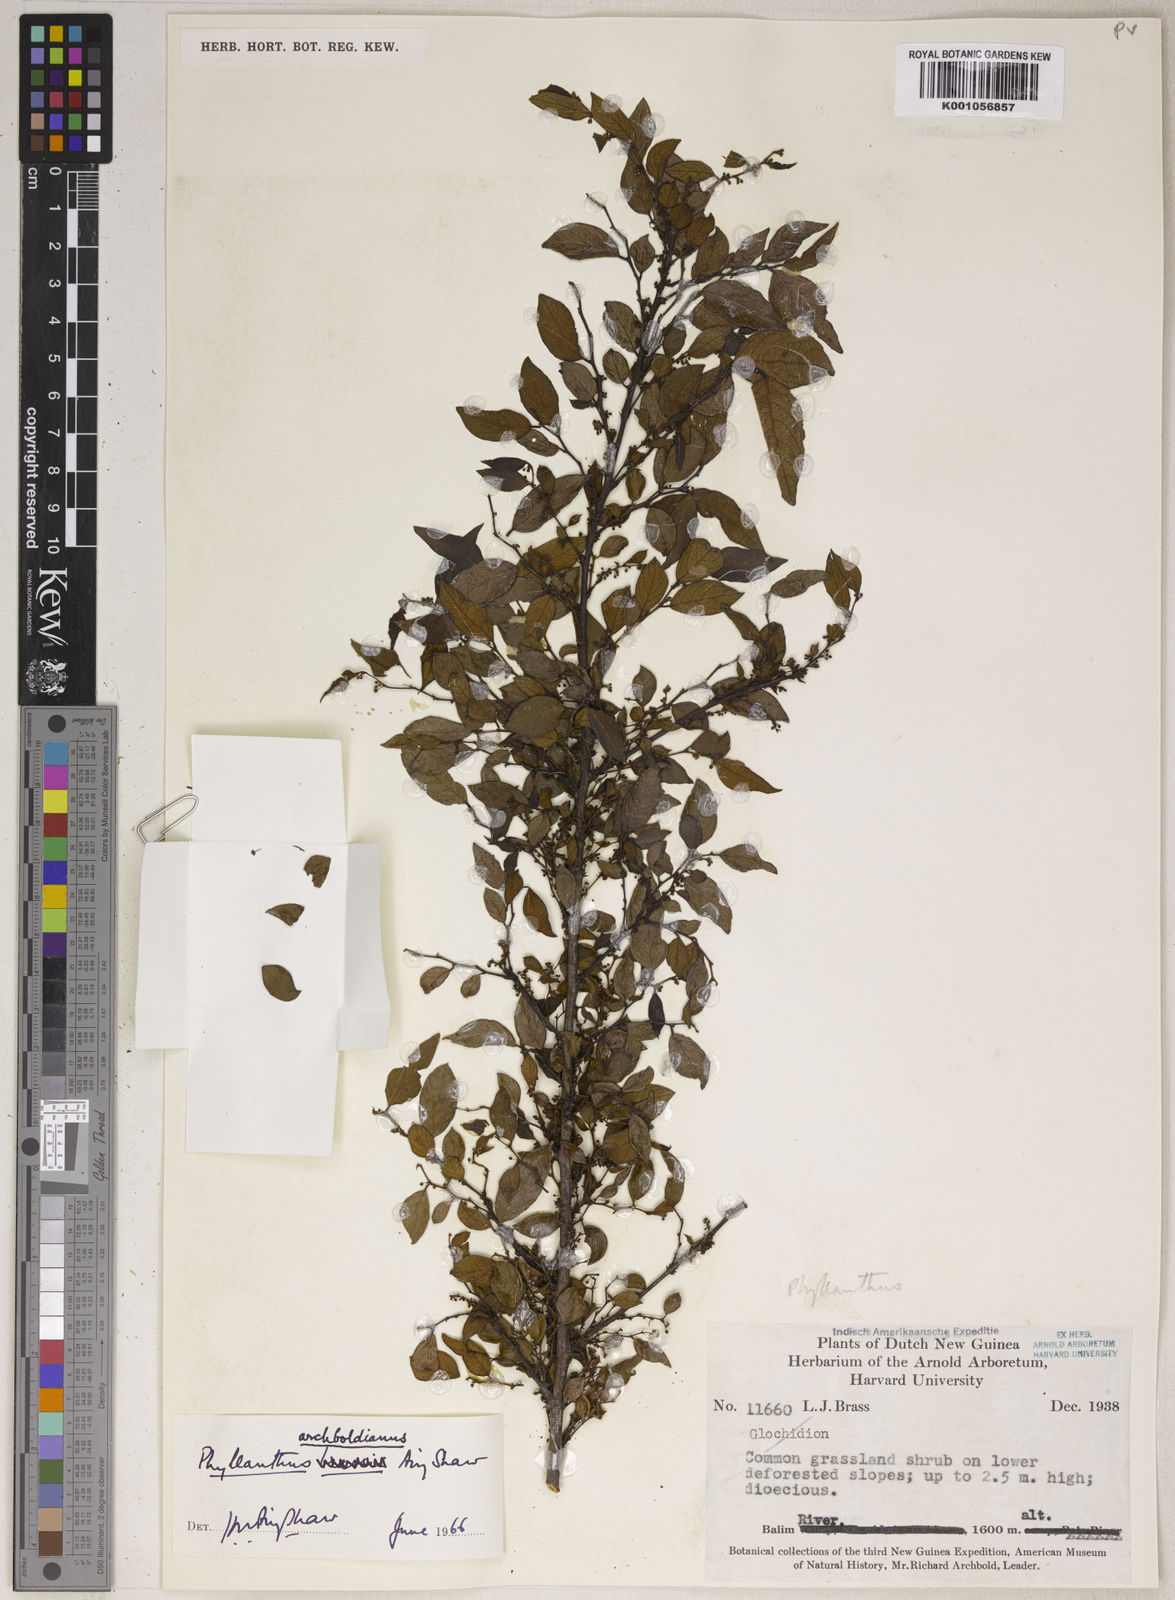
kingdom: Plantae
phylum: Tracheophyta
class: Magnoliopsida
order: Malpighiales
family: Phyllanthaceae
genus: Phyllanthus
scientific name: Phyllanthus archboldianus
